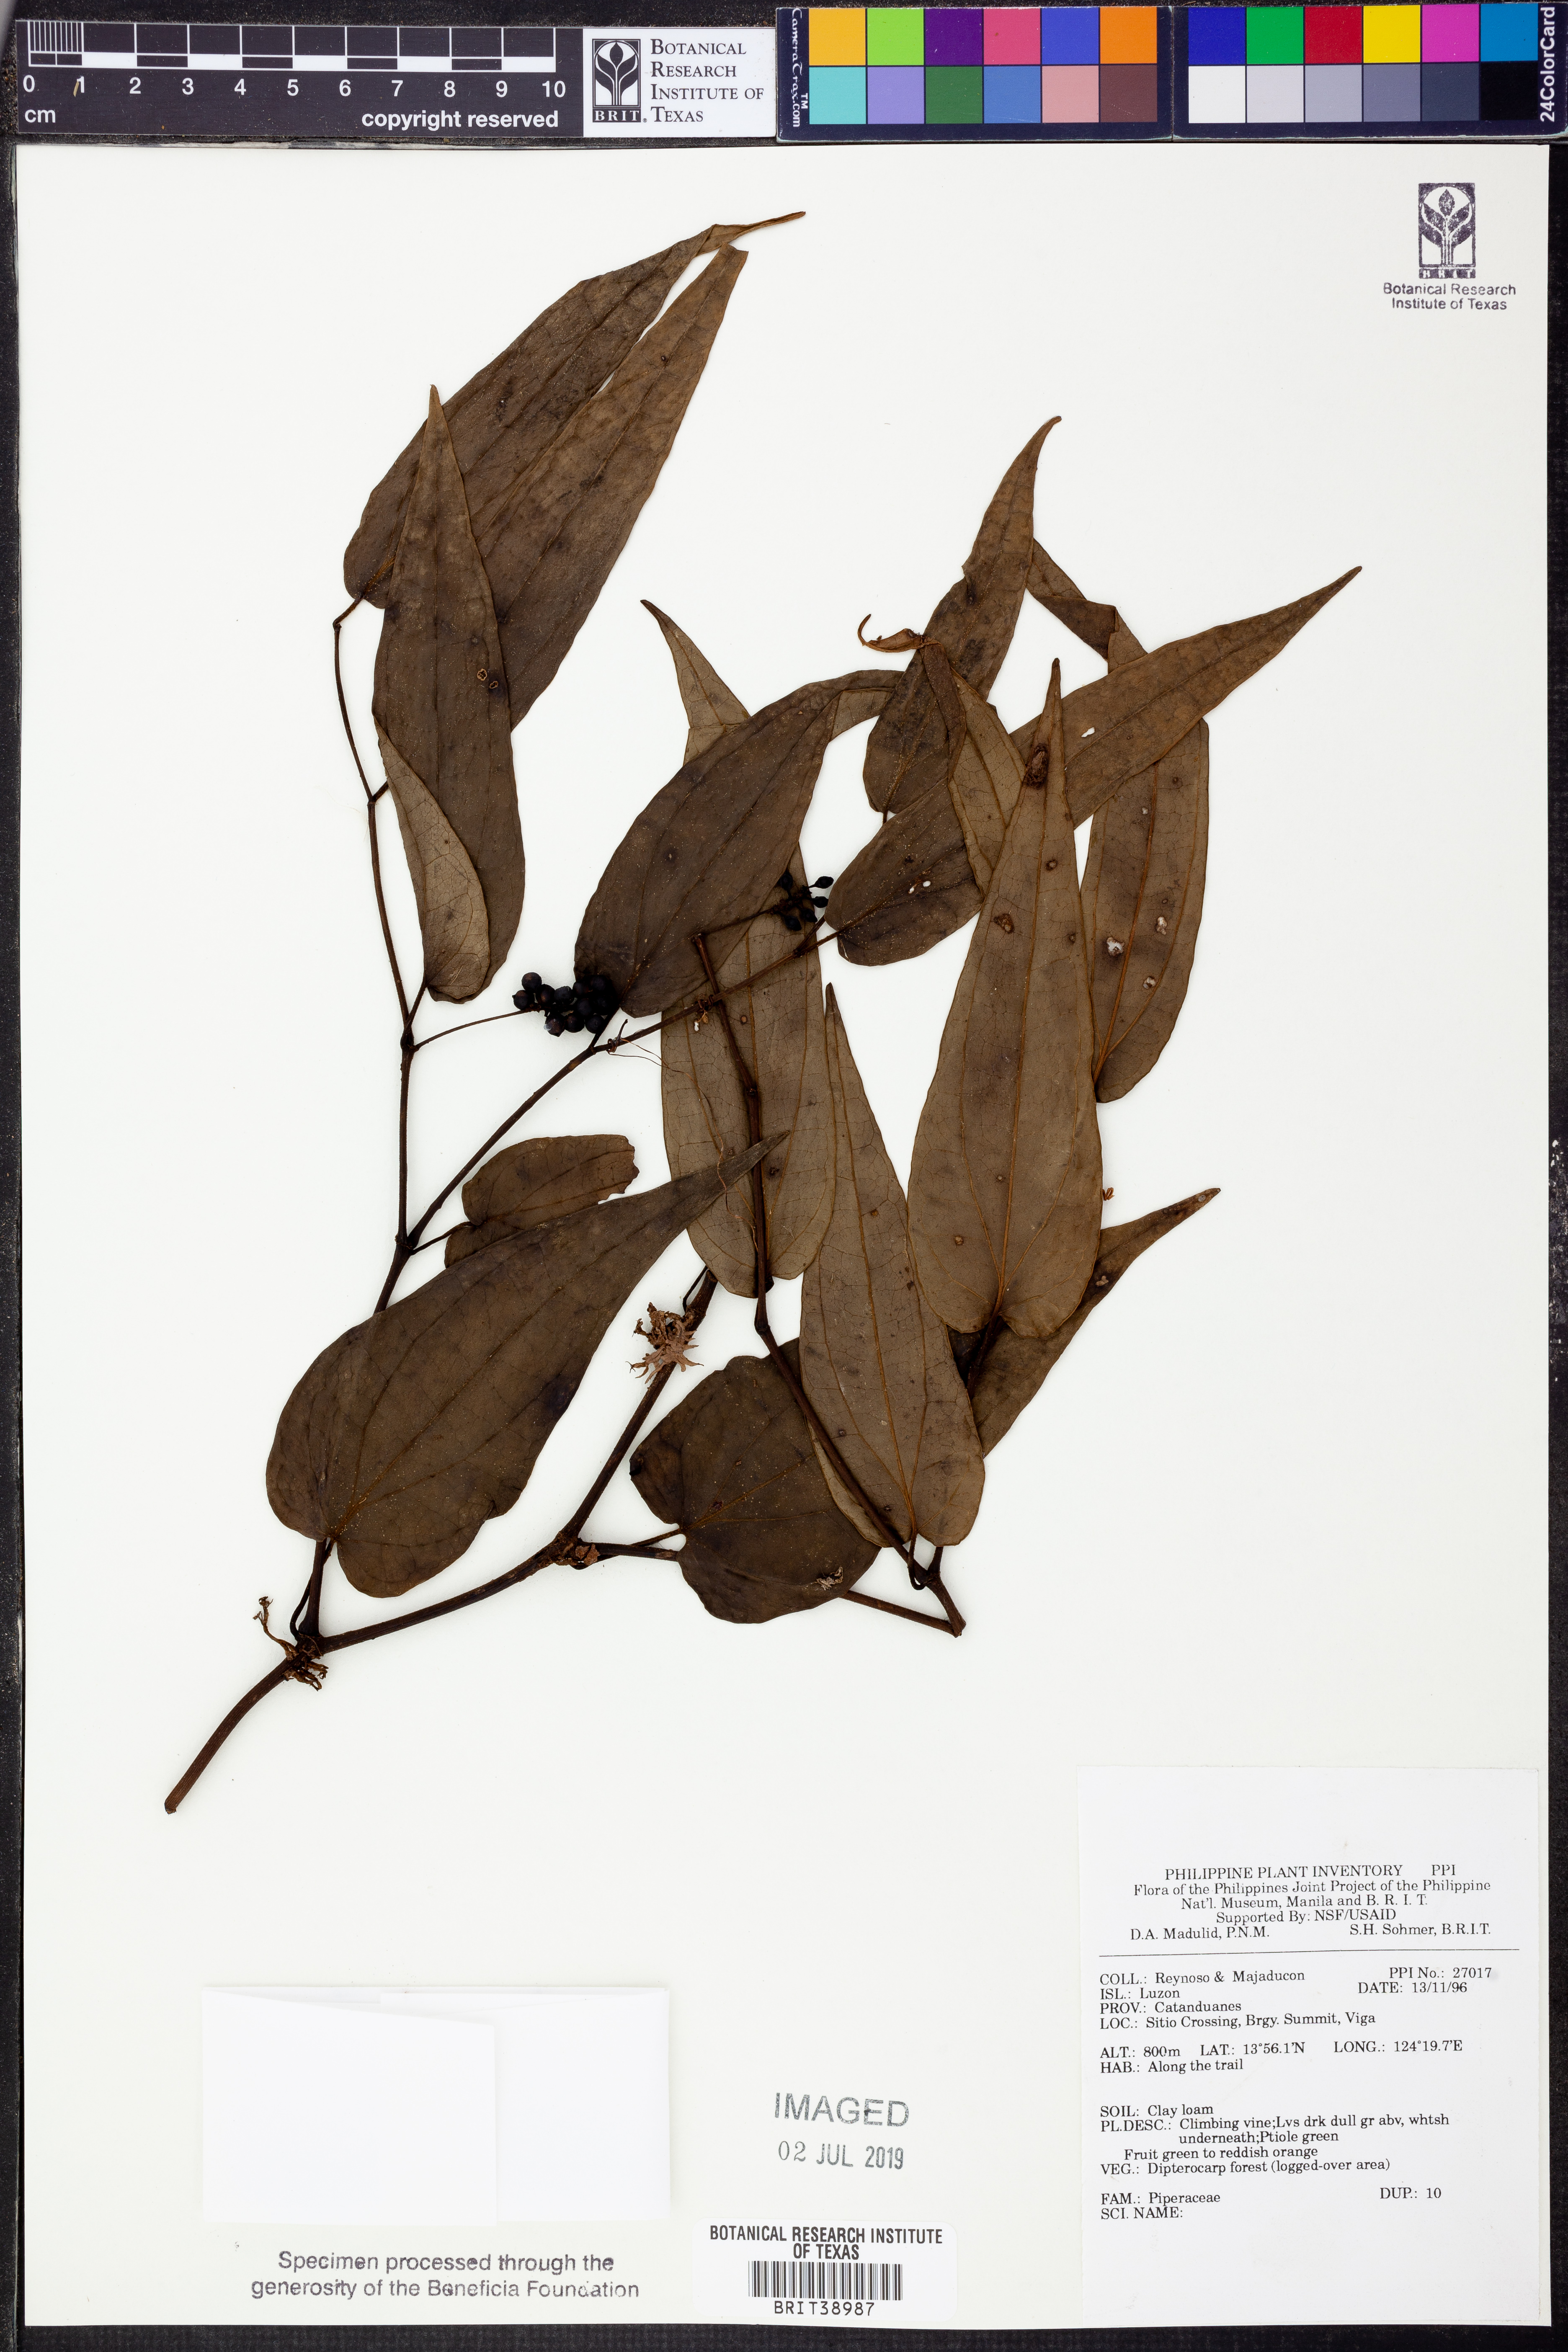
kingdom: Plantae
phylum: Tracheophyta
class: Magnoliopsida
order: Piperales
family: Piperaceae
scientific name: Piperaceae
